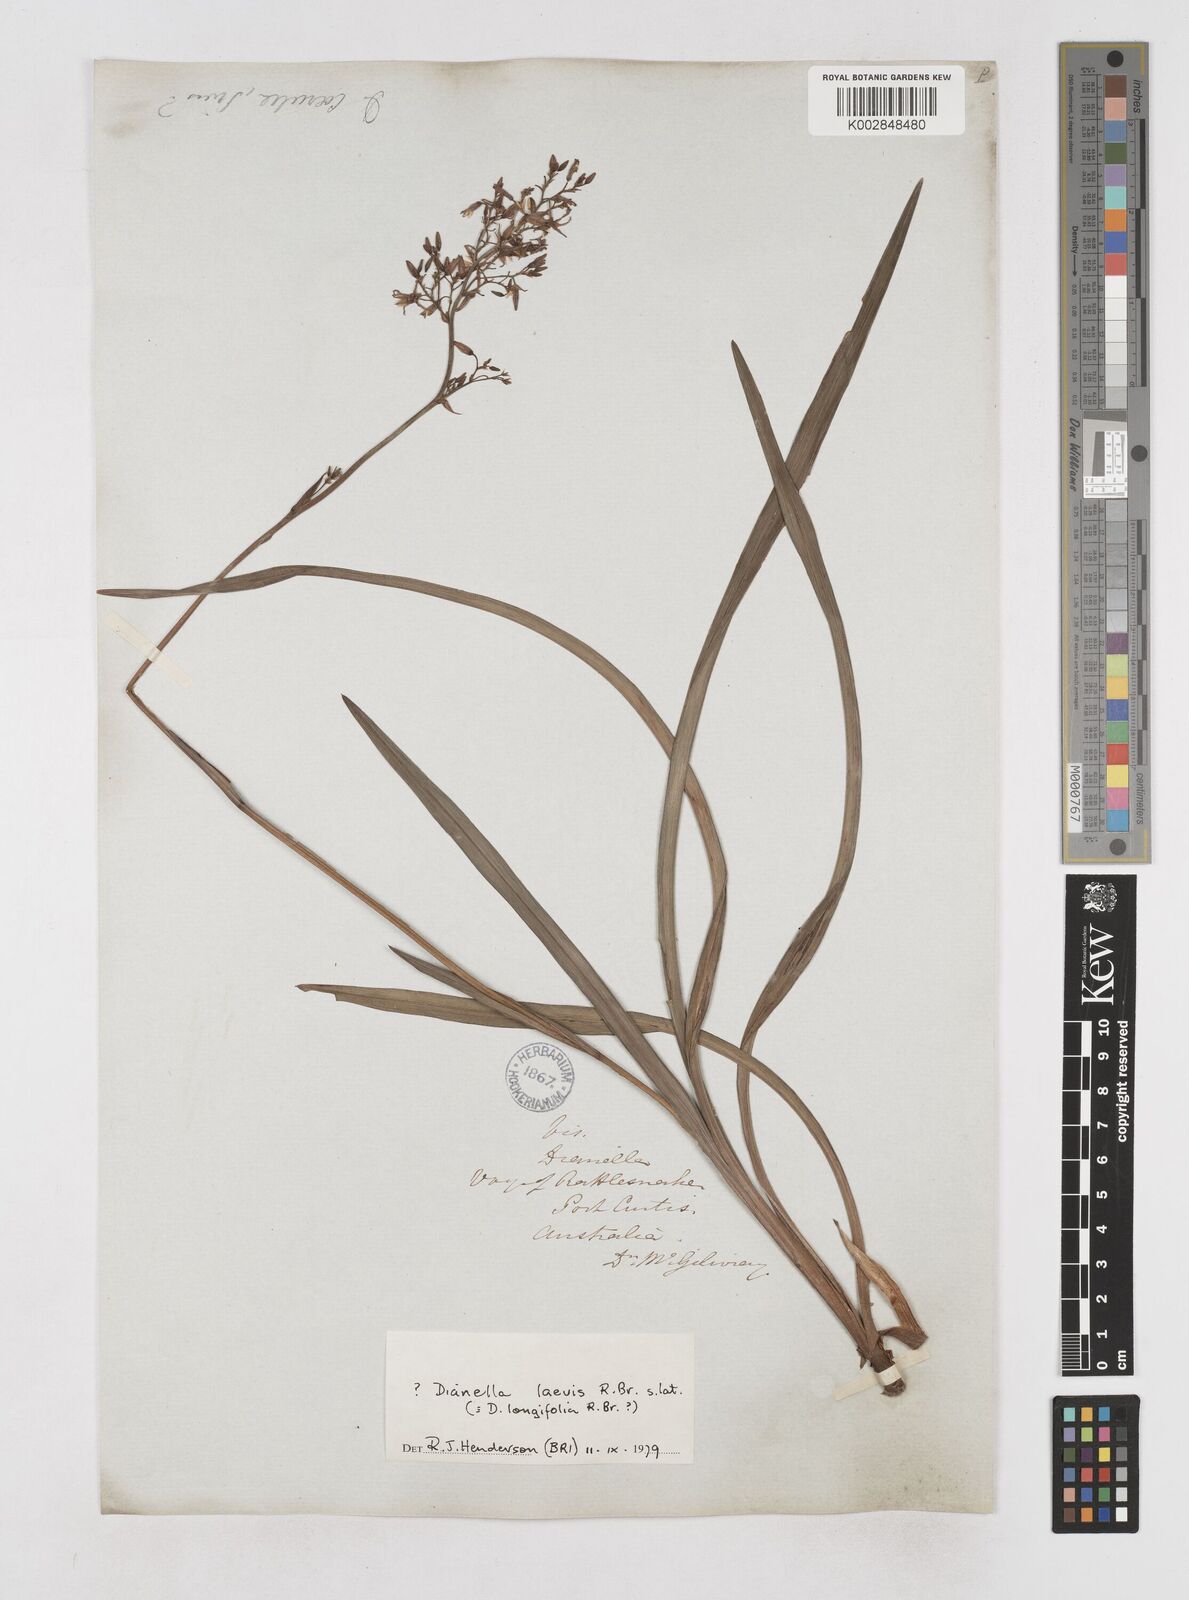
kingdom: Plantae
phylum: Tracheophyta
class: Liliopsida
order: Asparagales
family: Asphodelaceae
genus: Dianella
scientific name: Dianella longifolia
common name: Blue flax-lily
